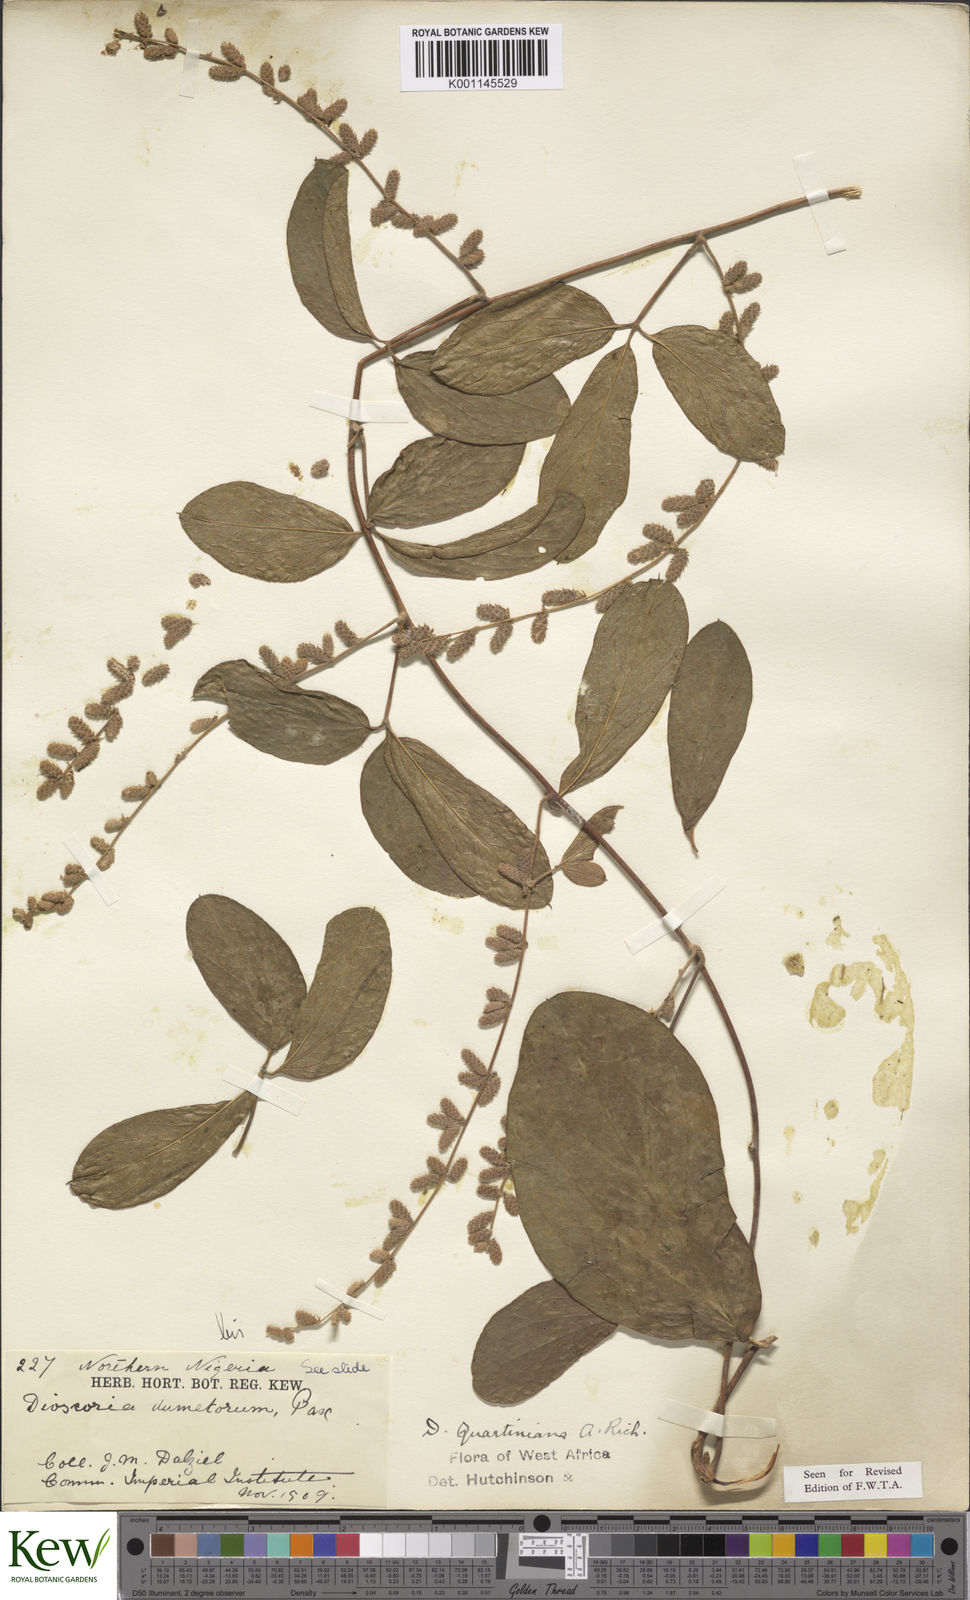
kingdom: Plantae
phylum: Tracheophyta
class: Liliopsida
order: Dioscoreales
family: Dioscoreaceae
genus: Dioscorea
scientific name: Dioscorea quartiniana
